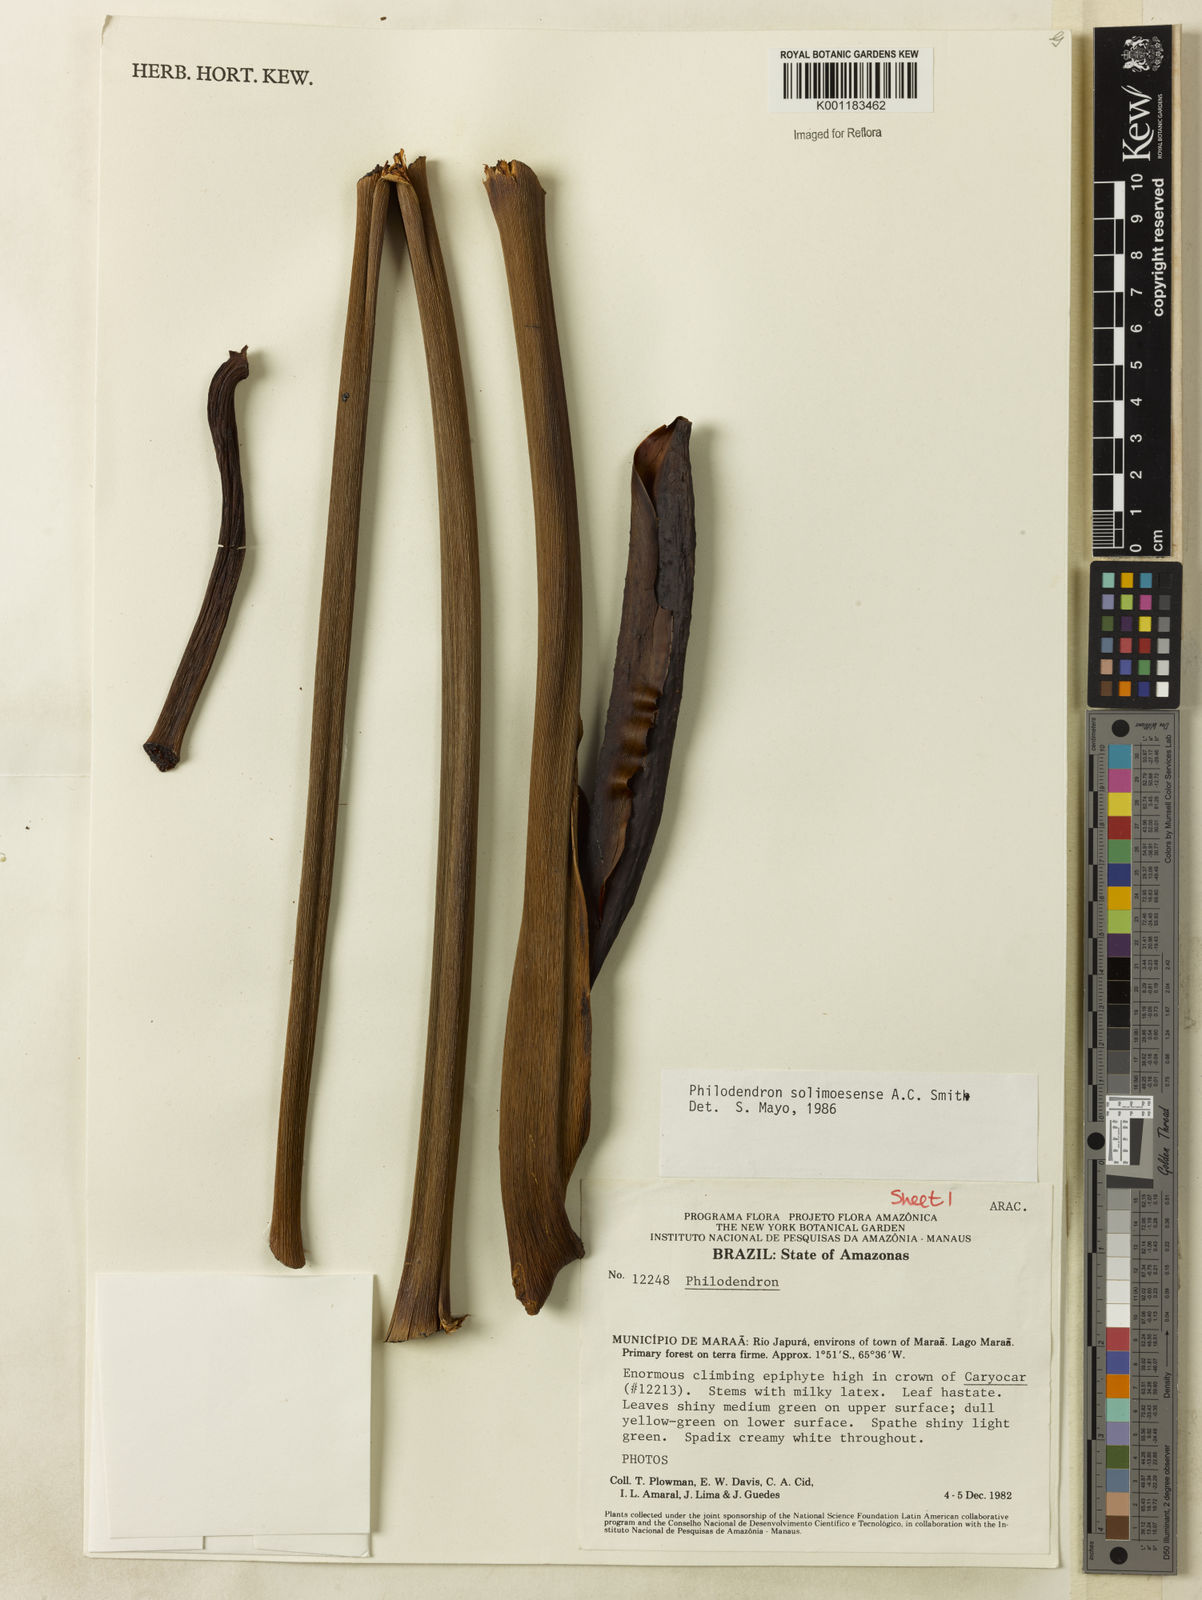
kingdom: Plantae
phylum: Tracheophyta
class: Liliopsida
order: Alismatales
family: Araceae
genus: Thaumatophyllum
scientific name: Thaumatophyllum solimoesense
